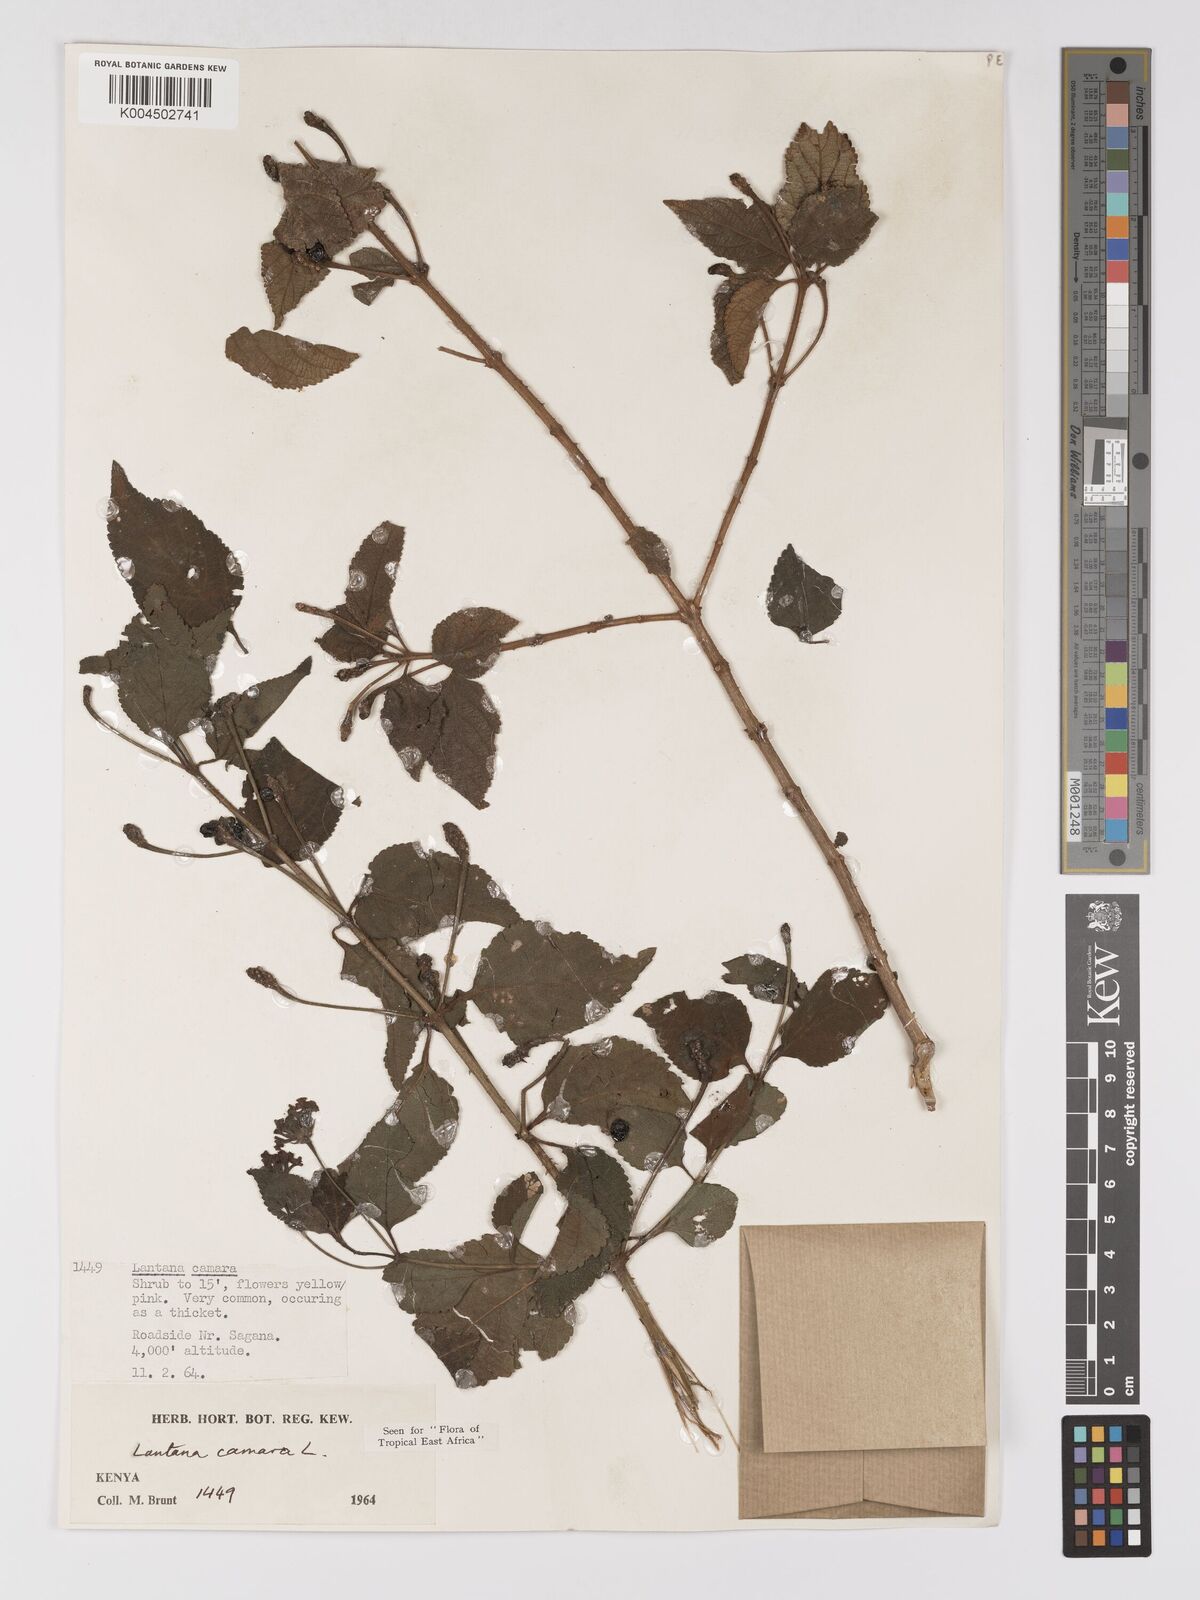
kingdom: Plantae
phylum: Tracheophyta
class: Magnoliopsida
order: Lamiales
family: Verbenaceae
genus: Lantana
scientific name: Lantana camara
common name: Lantana
